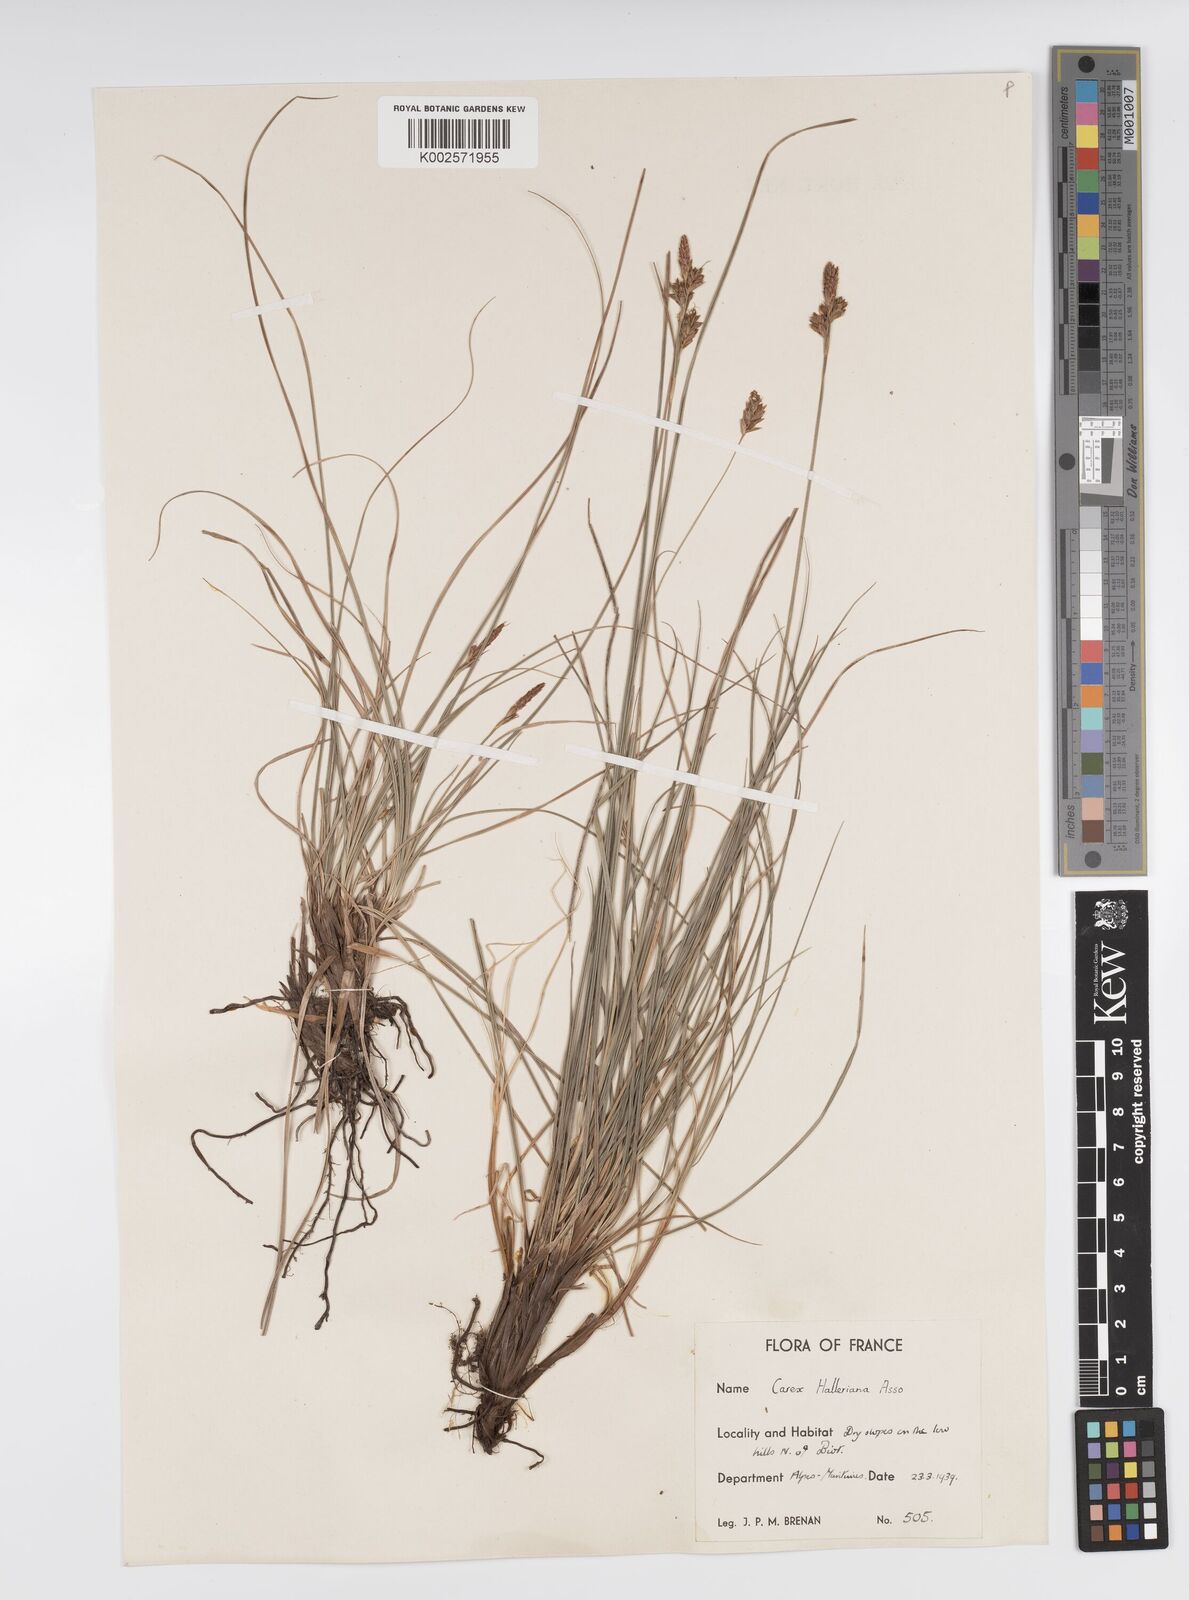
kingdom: Plantae
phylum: Tracheophyta
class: Liliopsida
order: Poales
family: Cyperaceae
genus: Carex
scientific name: Carex halleriana
